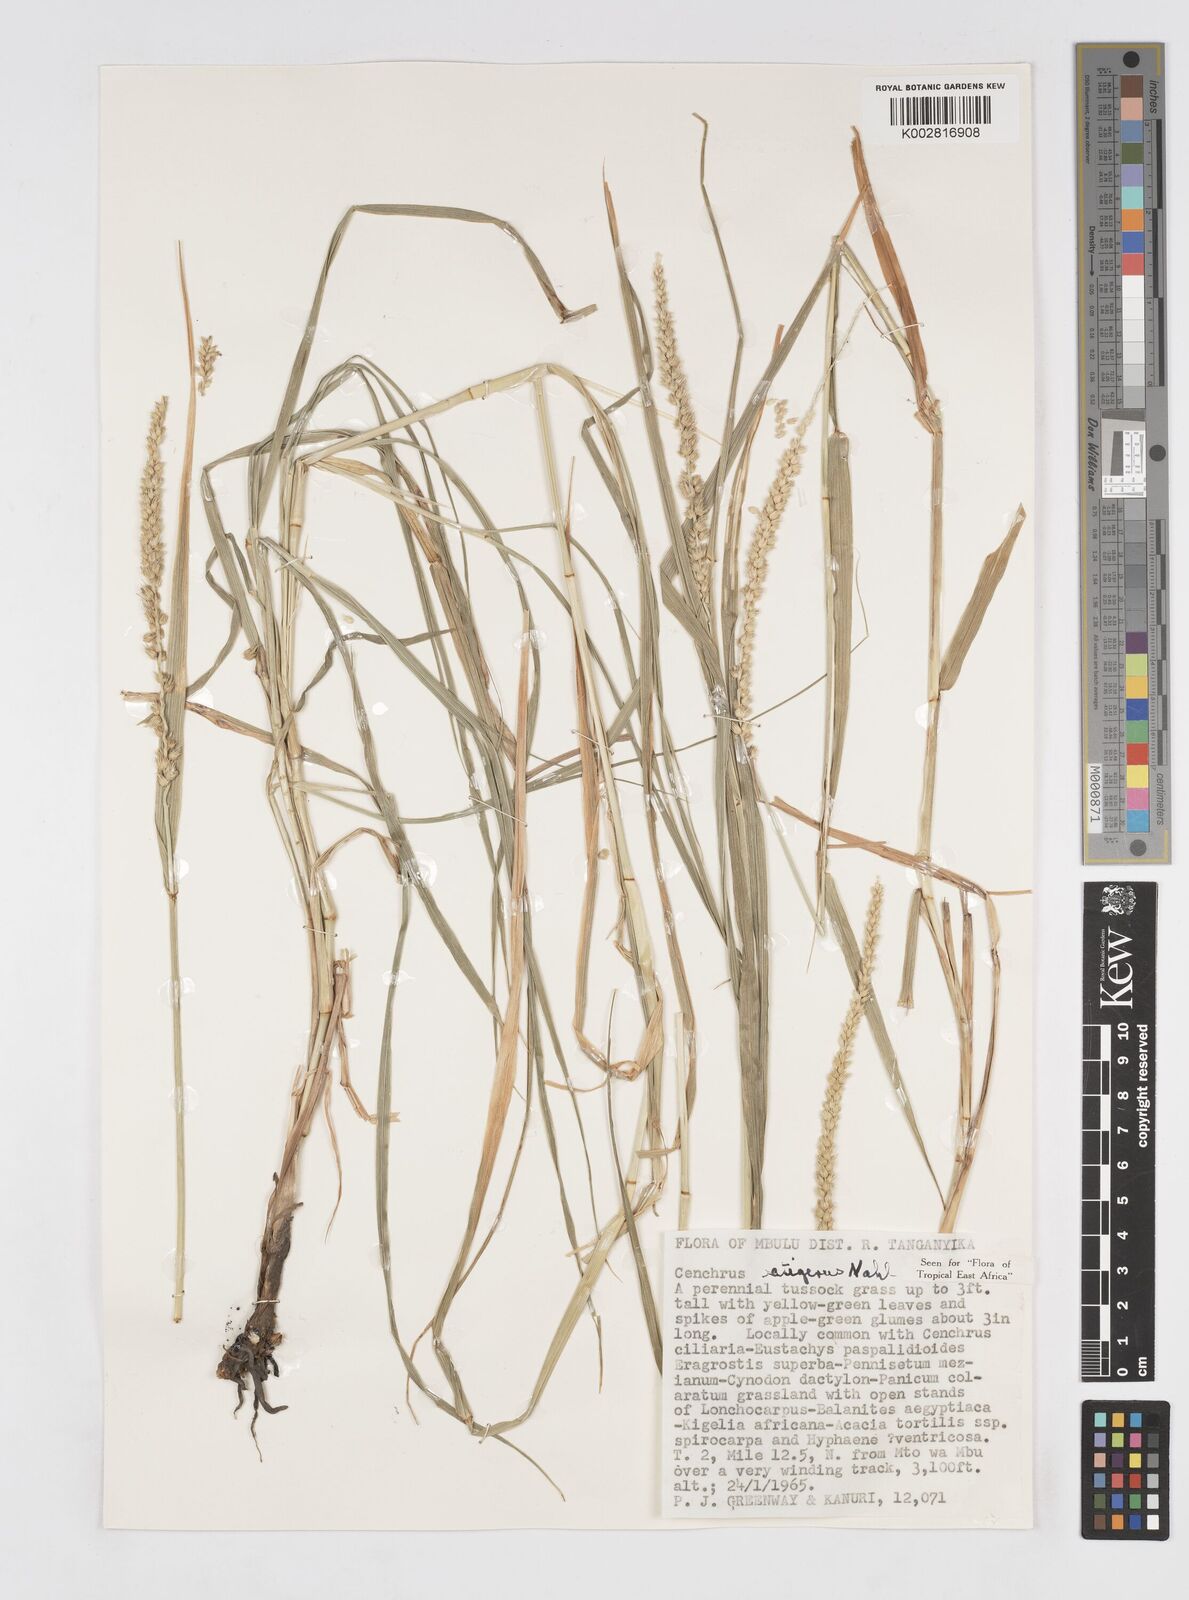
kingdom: Plantae
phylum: Tracheophyta
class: Liliopsida
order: Poales
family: Poaceae
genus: Cenchrus
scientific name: Cenchrus setigerus
